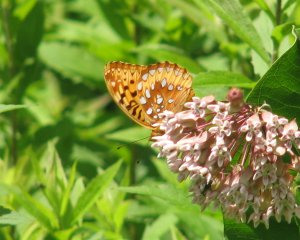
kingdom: Animalia
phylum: Arthropoda
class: Insecta
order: Lepidoptera
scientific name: Lepidoptera
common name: Butterflies
